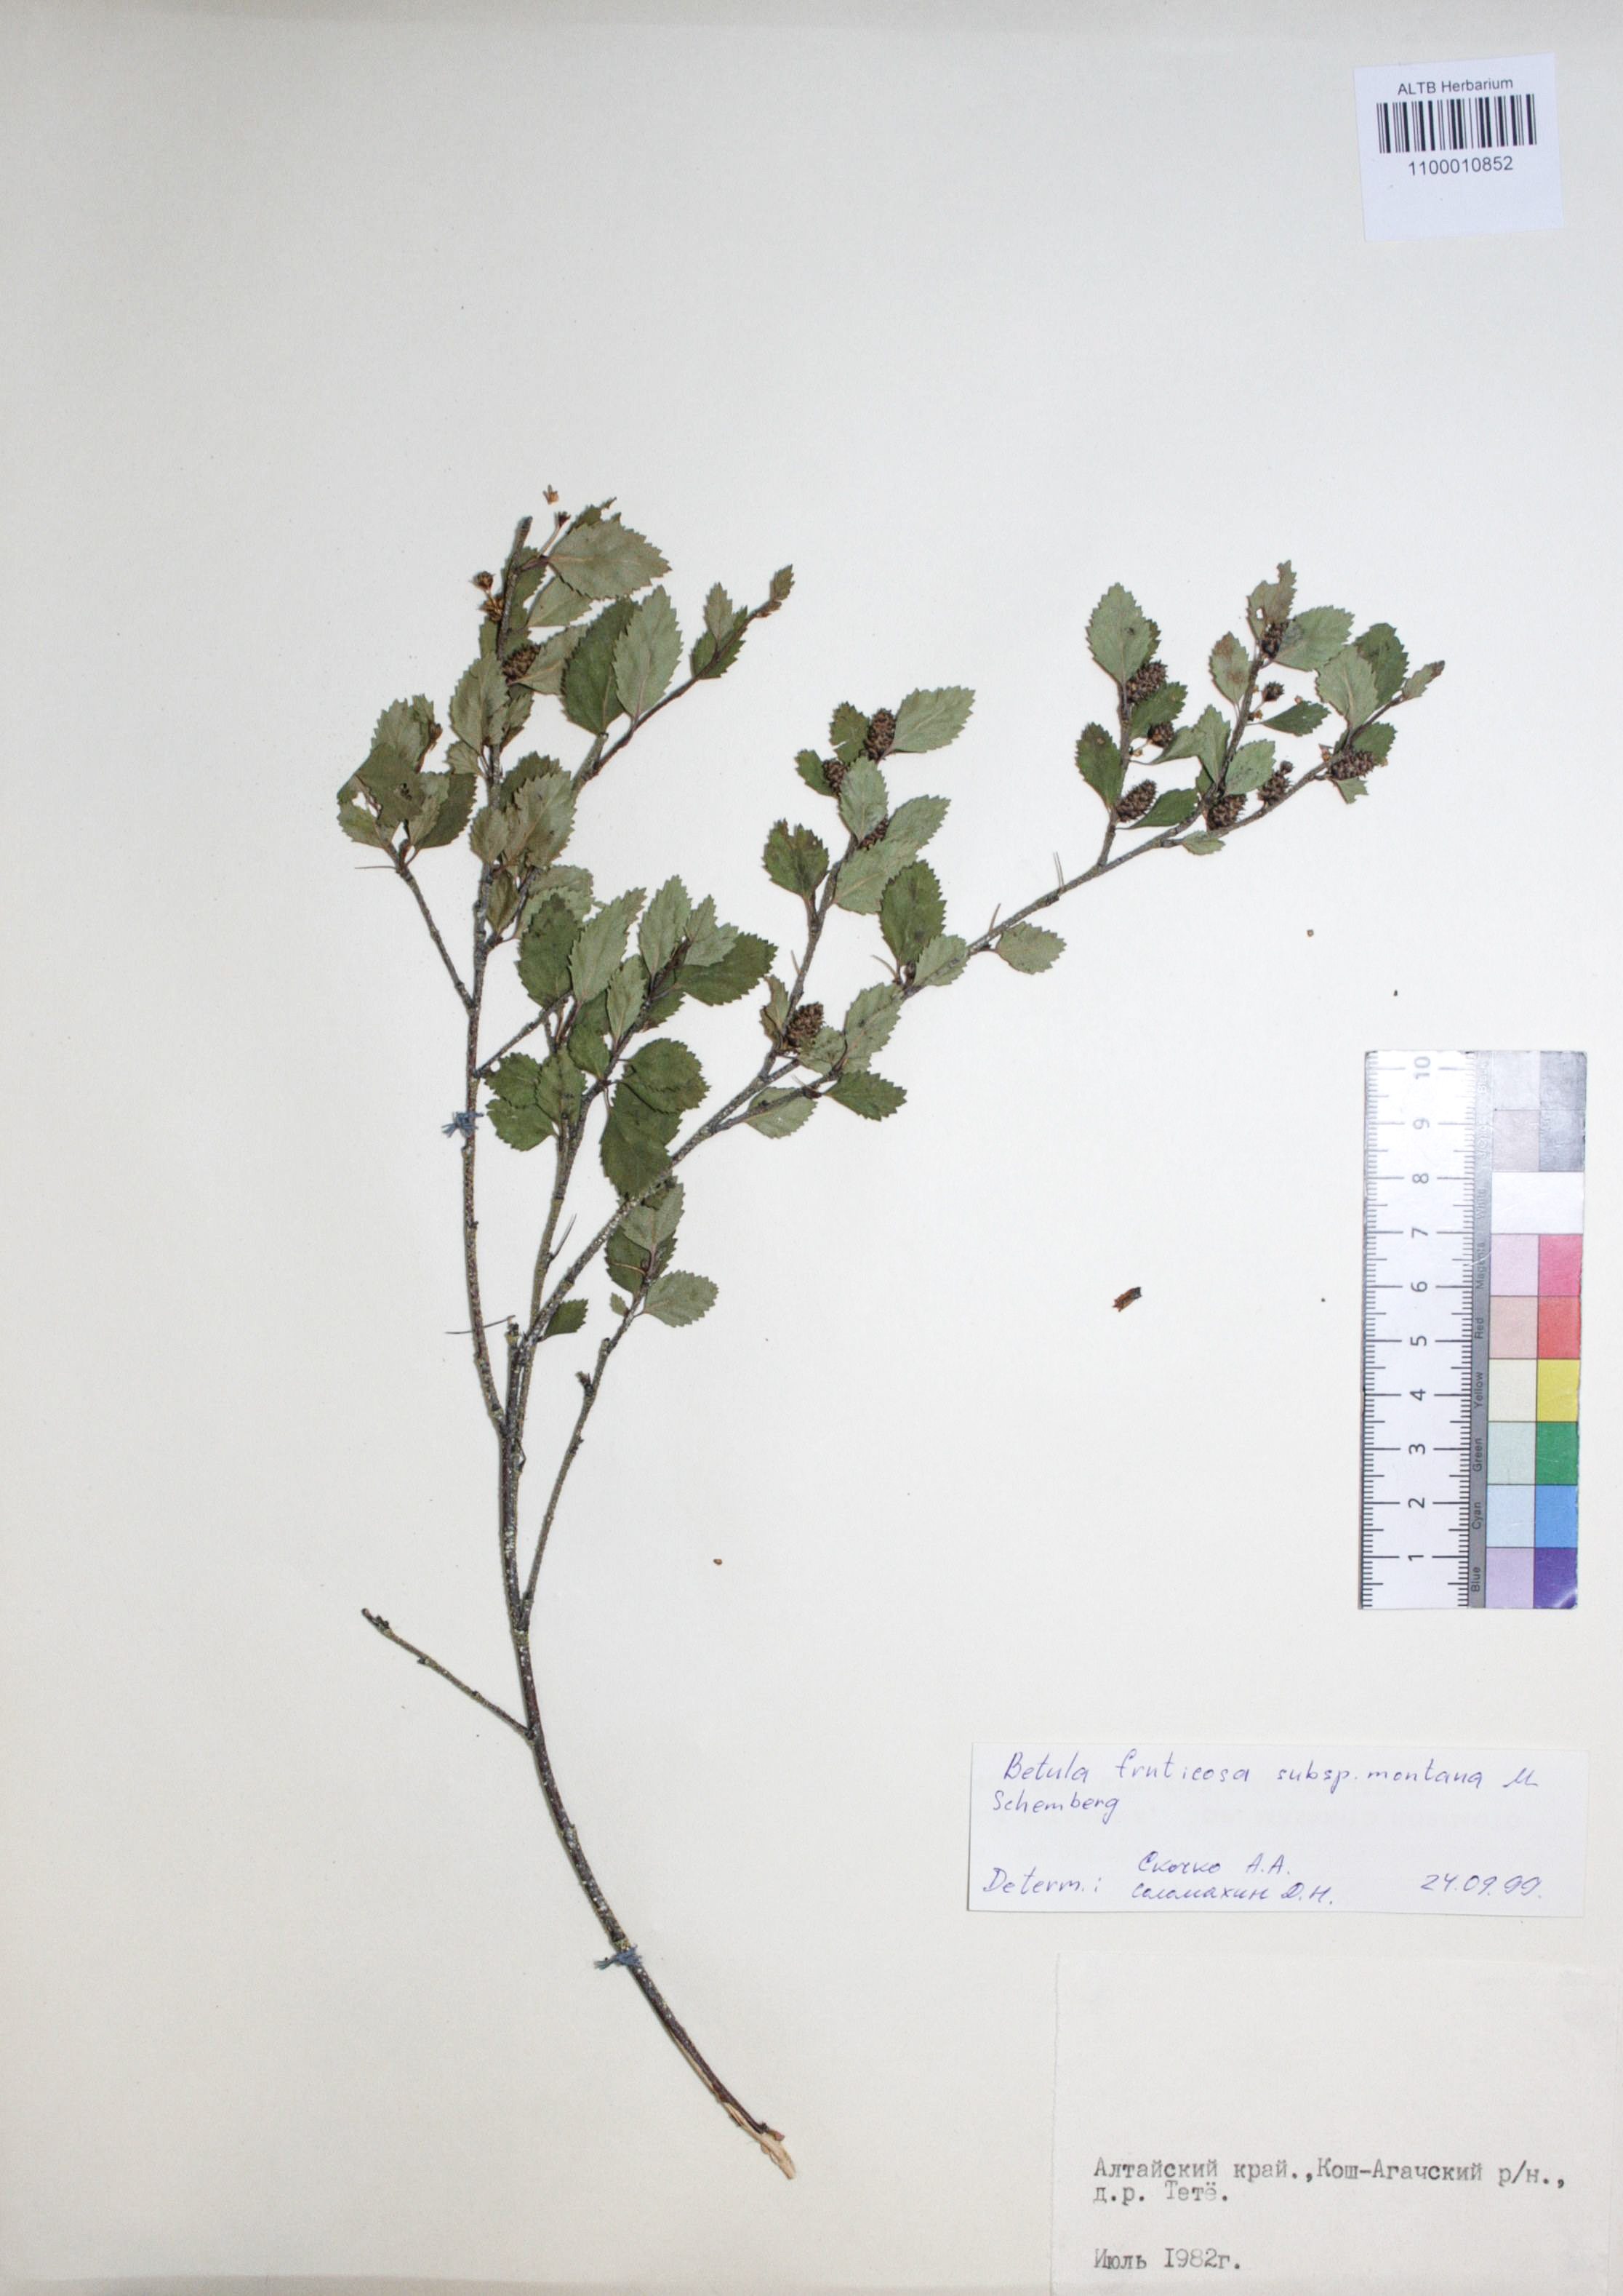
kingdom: Plantae
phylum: Tracheophyta
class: Magnoliopsida
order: Fagales
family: Betulaceae
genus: Betula
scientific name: Betula fruticosa
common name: Japanese bog birch
